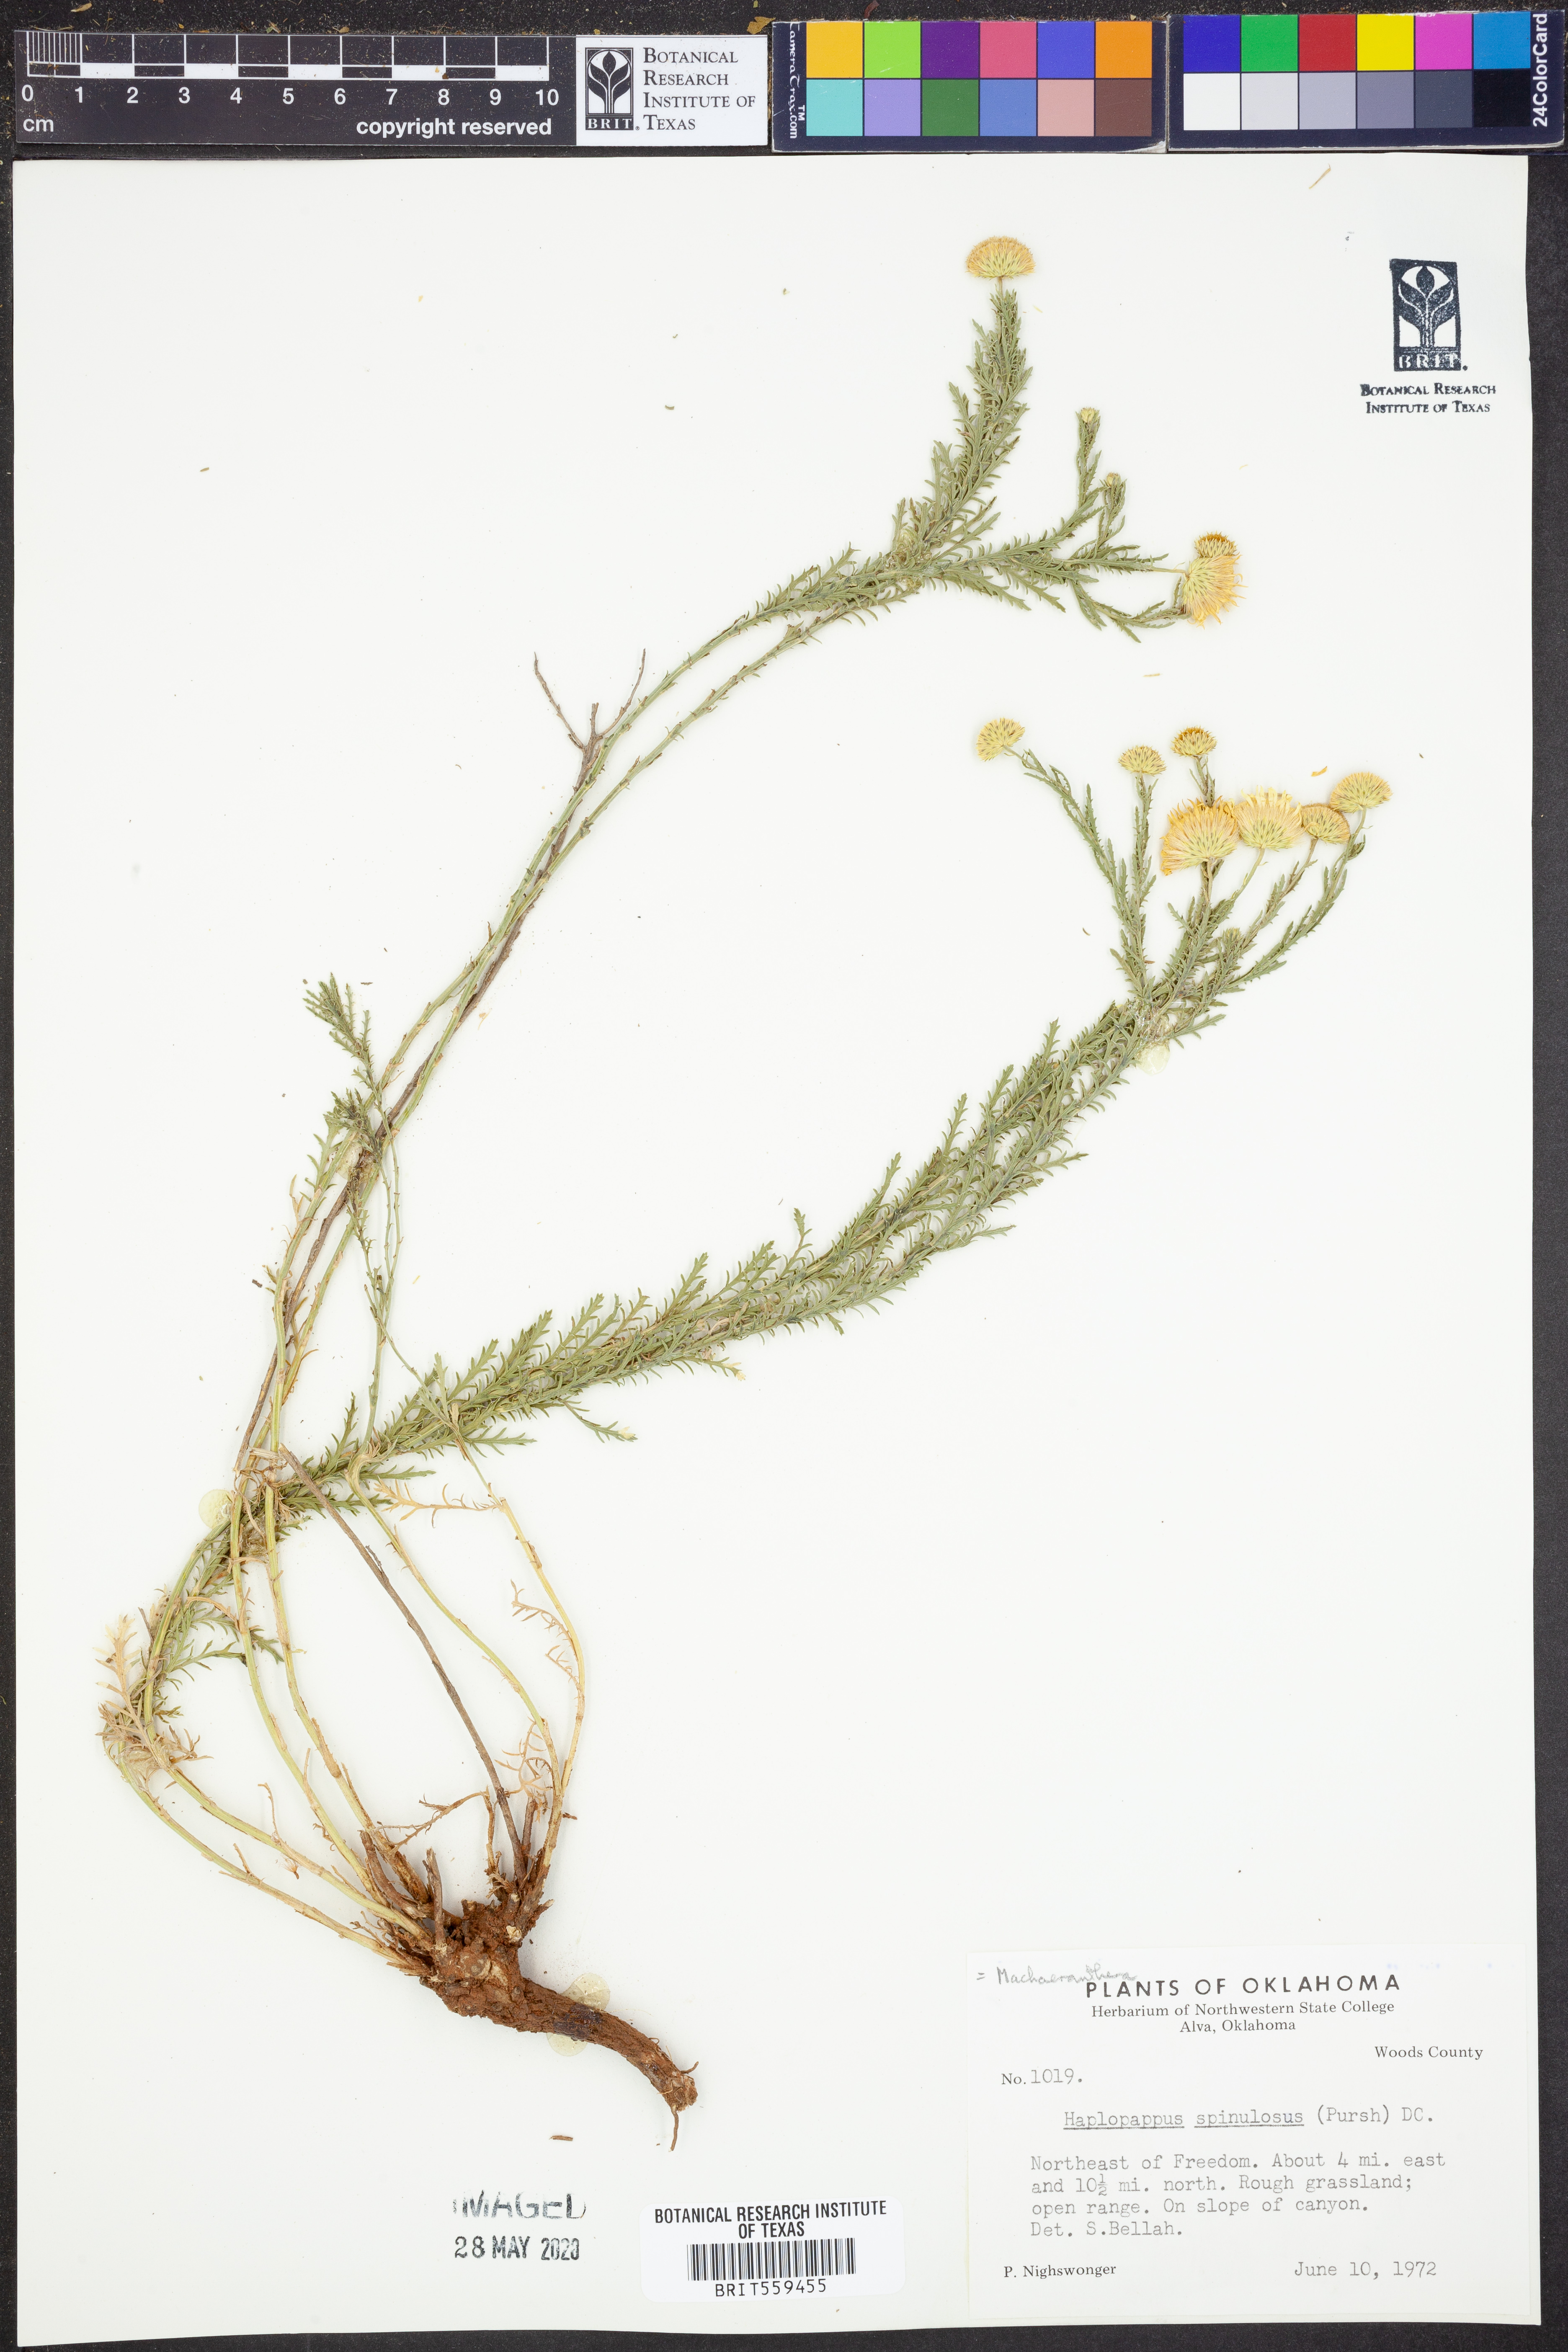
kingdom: Plantae
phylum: Tracheophyta
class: Magnoliopsida
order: Asterales
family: Asteraceae
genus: Dieteria
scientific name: Dieteria canescens
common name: Hoary-aster
